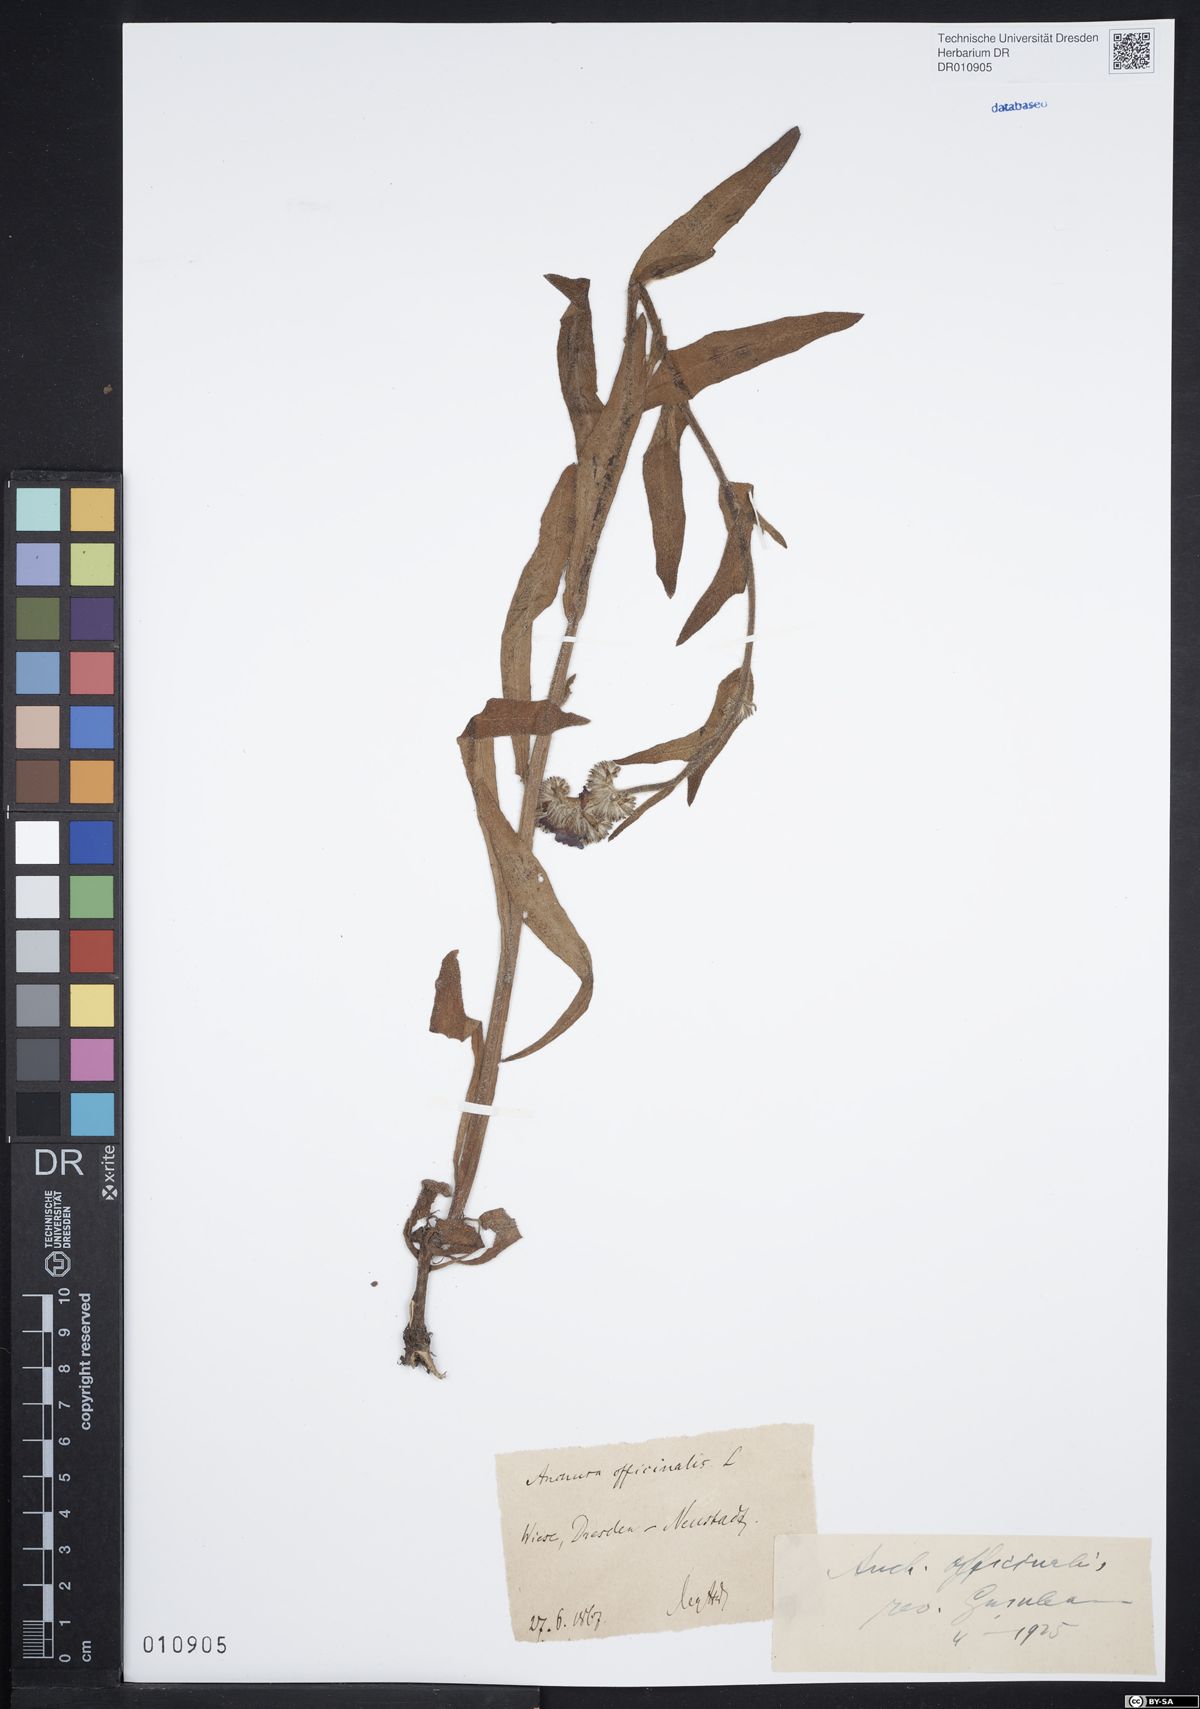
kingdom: Plantae
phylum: Tracheophyta
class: Magnoliopsida
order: Boraginales
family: Boraginaceae
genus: Anchusa
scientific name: Anchusa officinalis
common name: Alkanet
